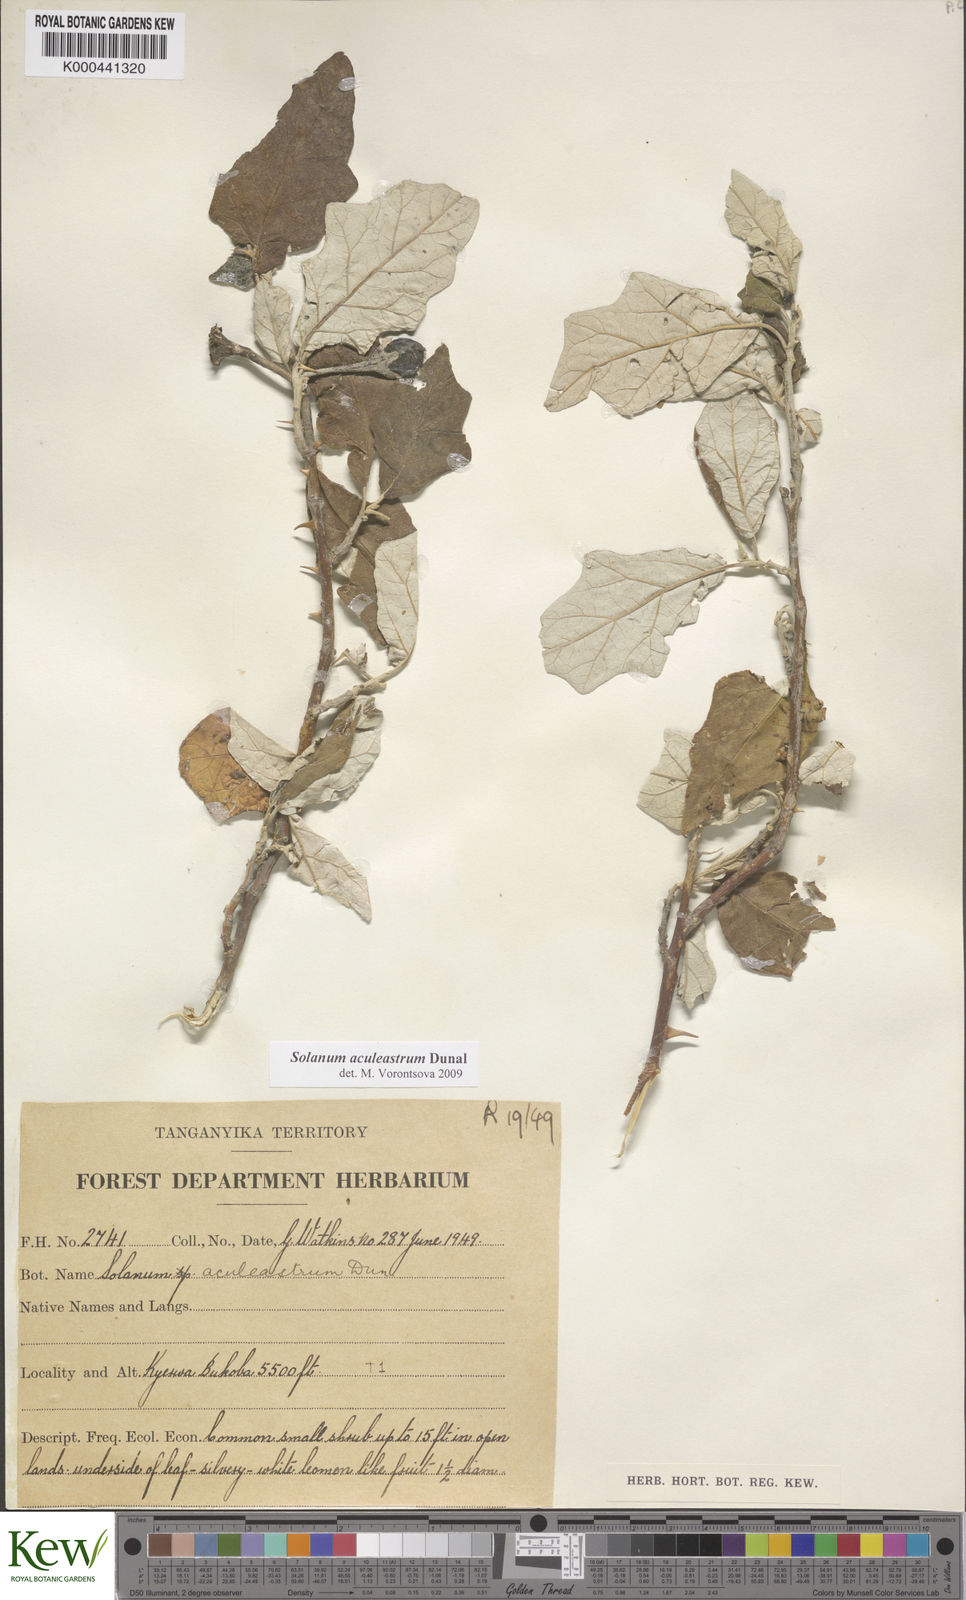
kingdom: Plantae
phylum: Tracheophyta
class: Magnoliopsida
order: Solanales
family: Solanaceae
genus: Solanum
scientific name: Solanum aculeastrum
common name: Goat bitter-apple
